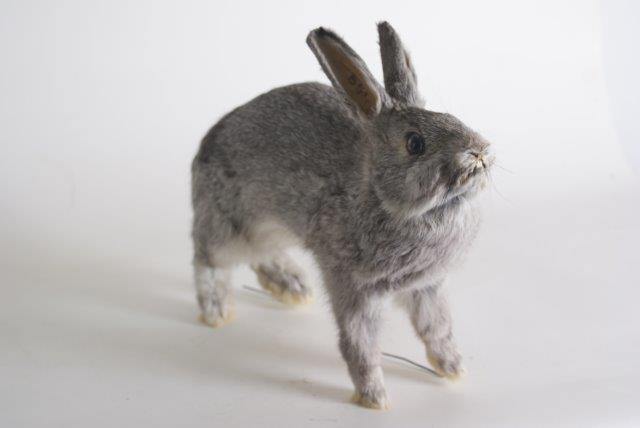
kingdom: Animalia
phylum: Chordata
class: Mammalia
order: Lagomorpha
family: Leporidae
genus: Oryctolagus
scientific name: Oryctolagus cuniculus
